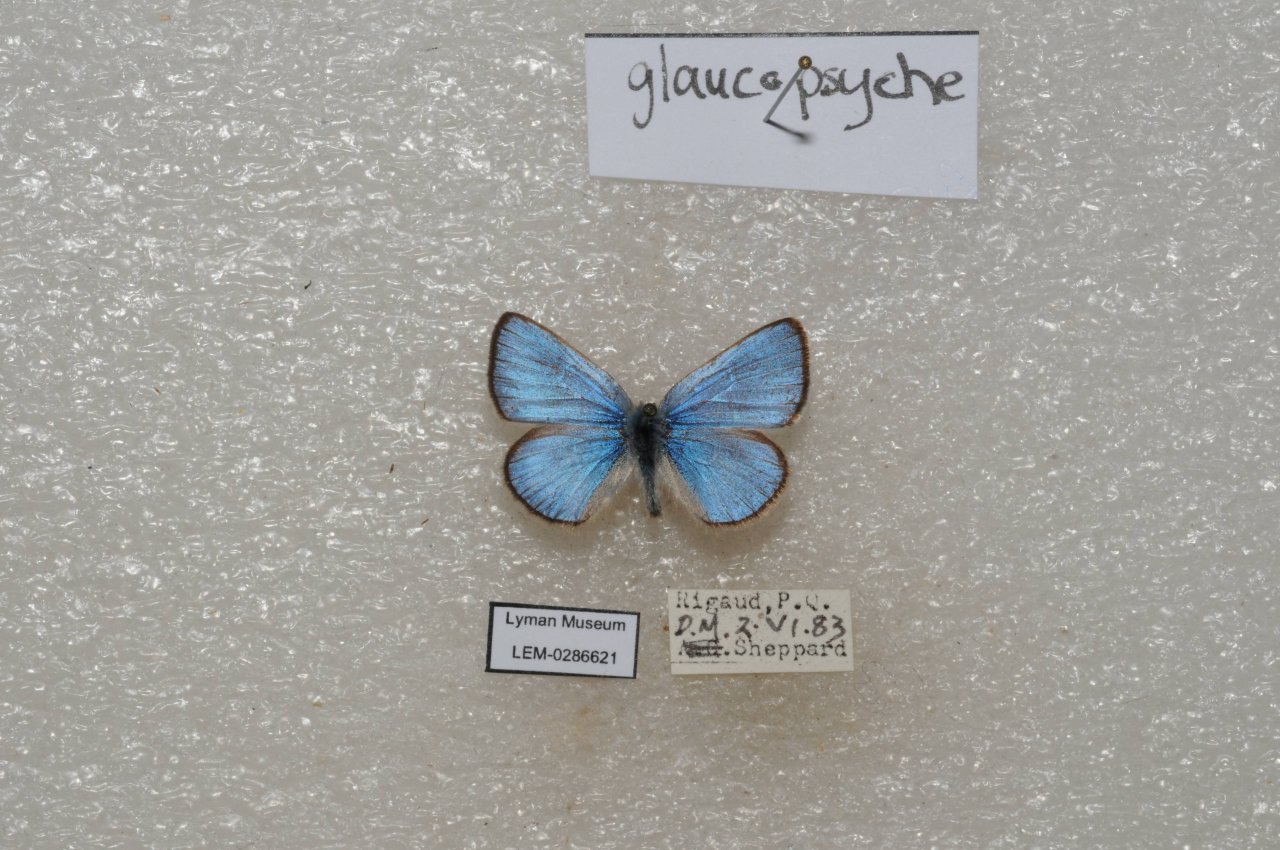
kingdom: Animalia
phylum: Arthropoda
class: Insecta
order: Lepidoptera
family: Lycaenidae
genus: Glaucopsyche
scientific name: Glaucopsyche lygdamus
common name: Silvery Blue
